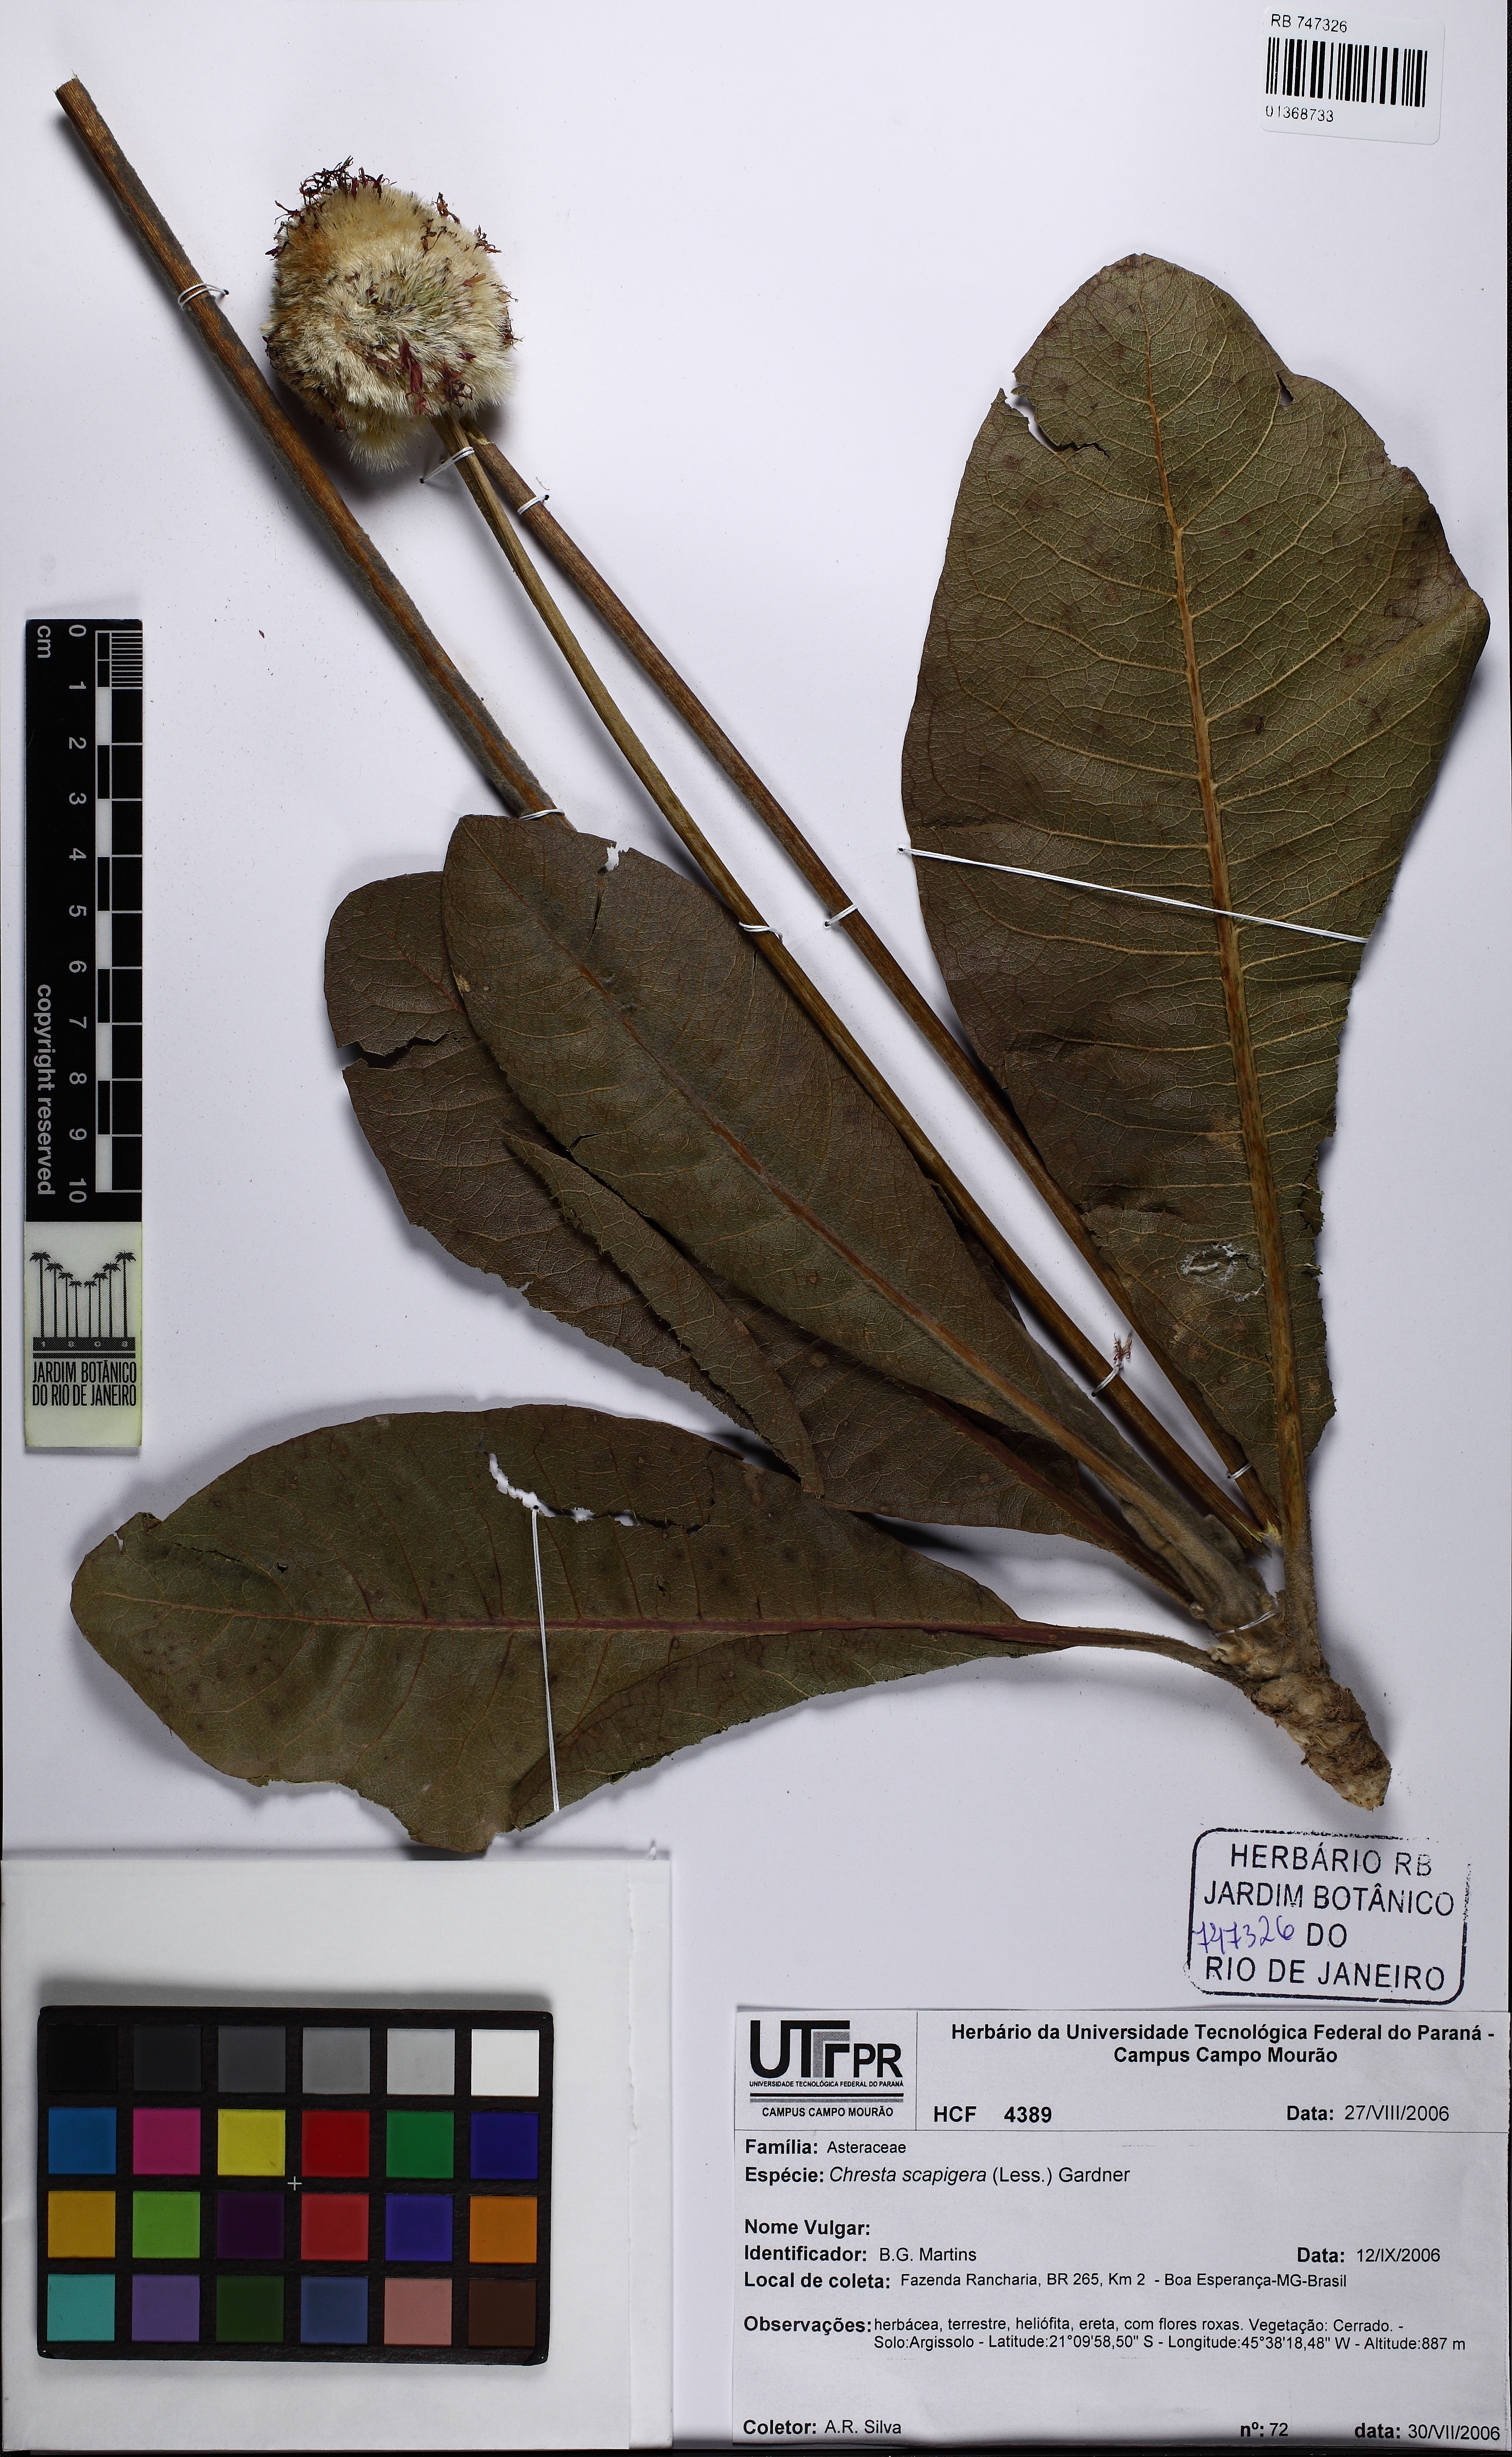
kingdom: Plantae
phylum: Tracheophyta
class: Magnoliopsida
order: Asterales
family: Asteraceae
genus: Chresta
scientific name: Chresta scapigera
